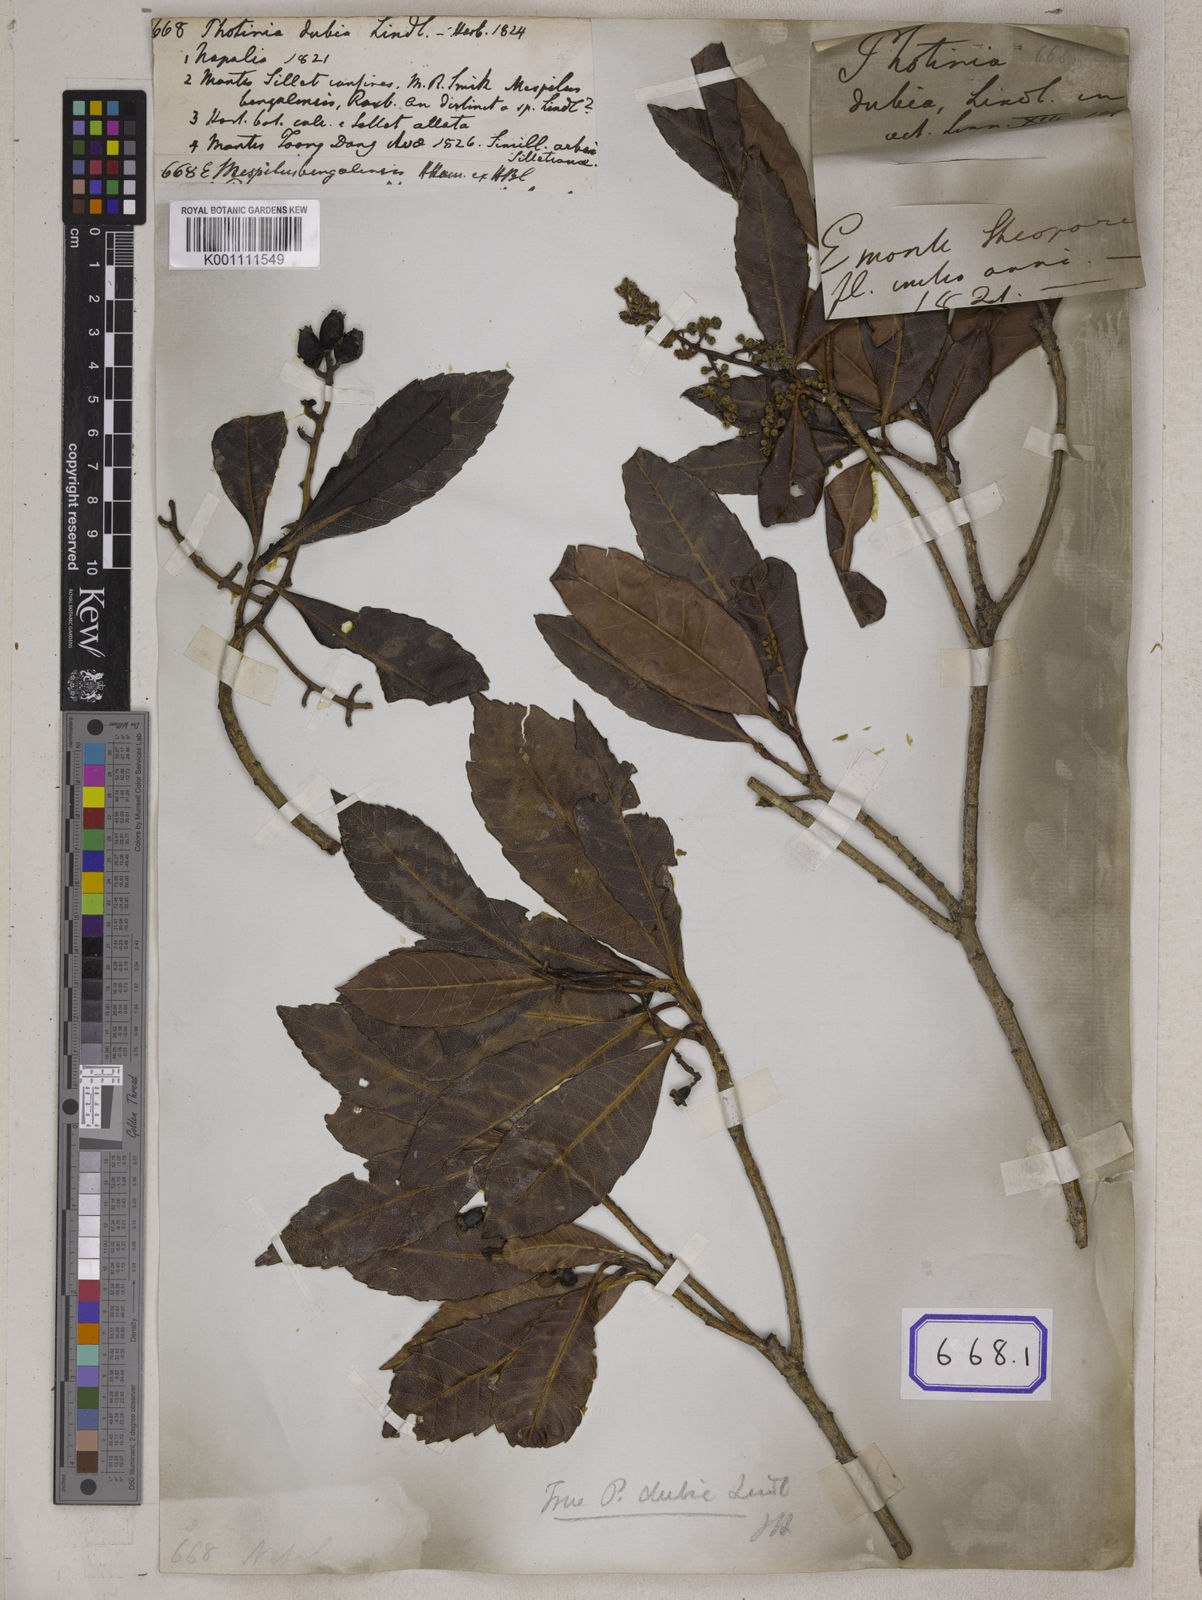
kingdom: Plantae
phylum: Tracheophyta
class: Magnoliopsida
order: Rosales
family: Rosaceae
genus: Rhaphiolepis
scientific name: Rhaphiolepis dubia
